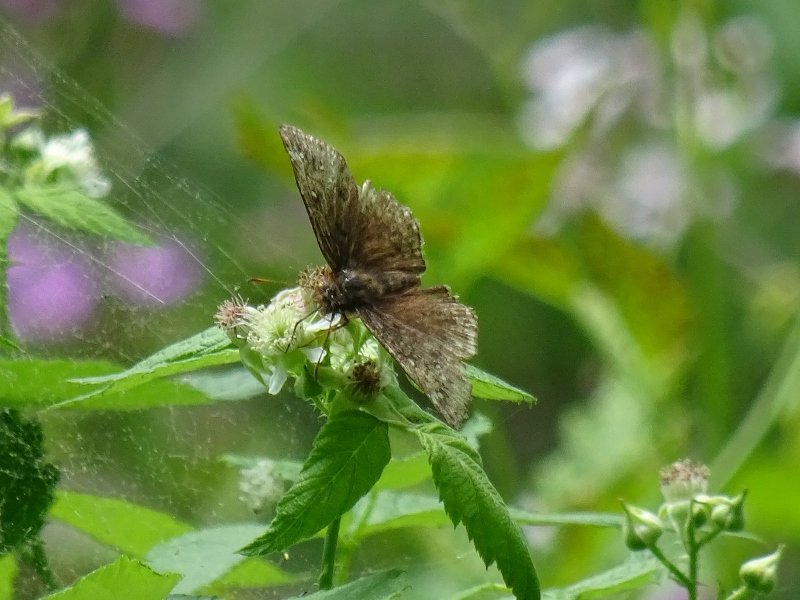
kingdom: Animalia
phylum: Arthropoda
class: Insecta
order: Lepidoptera
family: Hesperiidae
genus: Erynnis
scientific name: Erynnis
